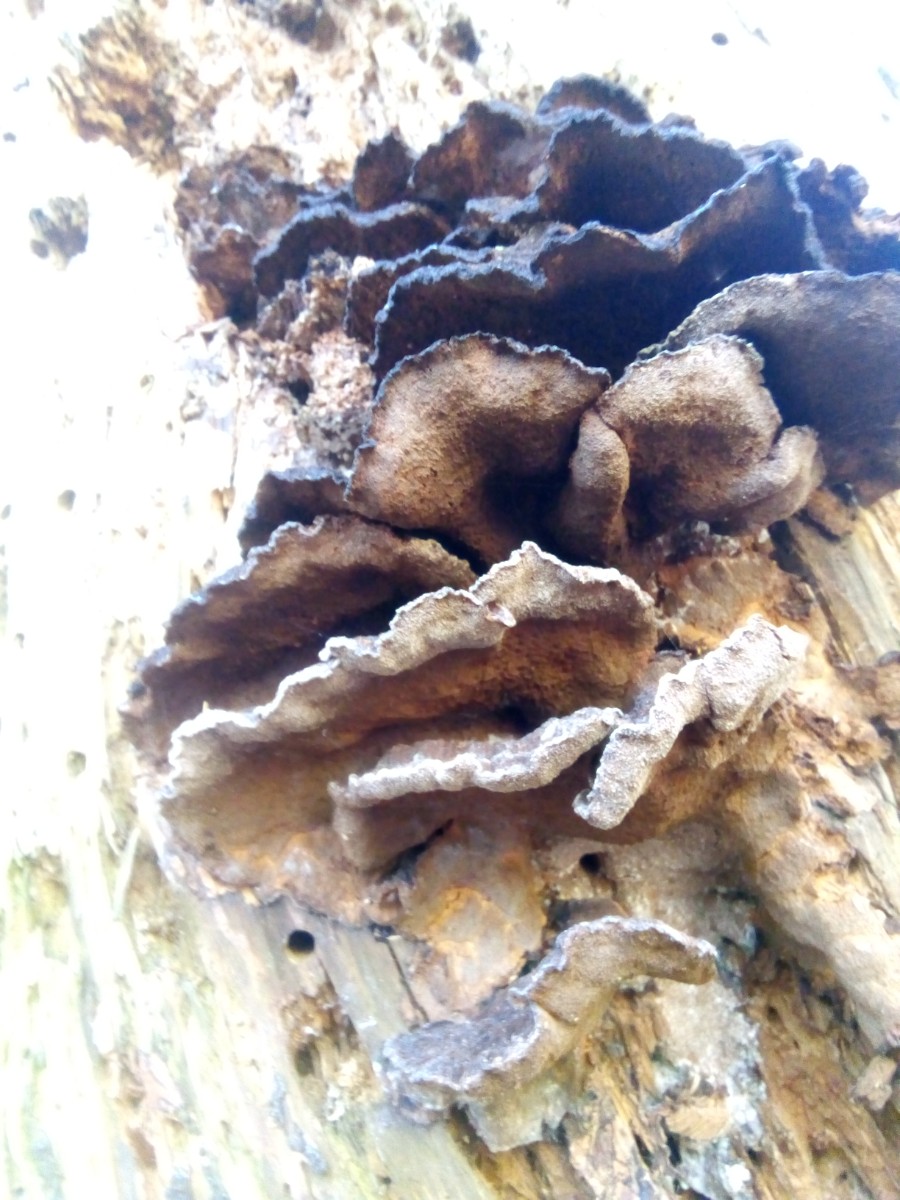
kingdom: Fungi
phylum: Basidiomycota
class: Agaricomycetes
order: Polyporales
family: Ischnodermataceae
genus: Ischnoderma
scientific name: Ischnoderma benzoinum
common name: gran-tjæreporesvamp
